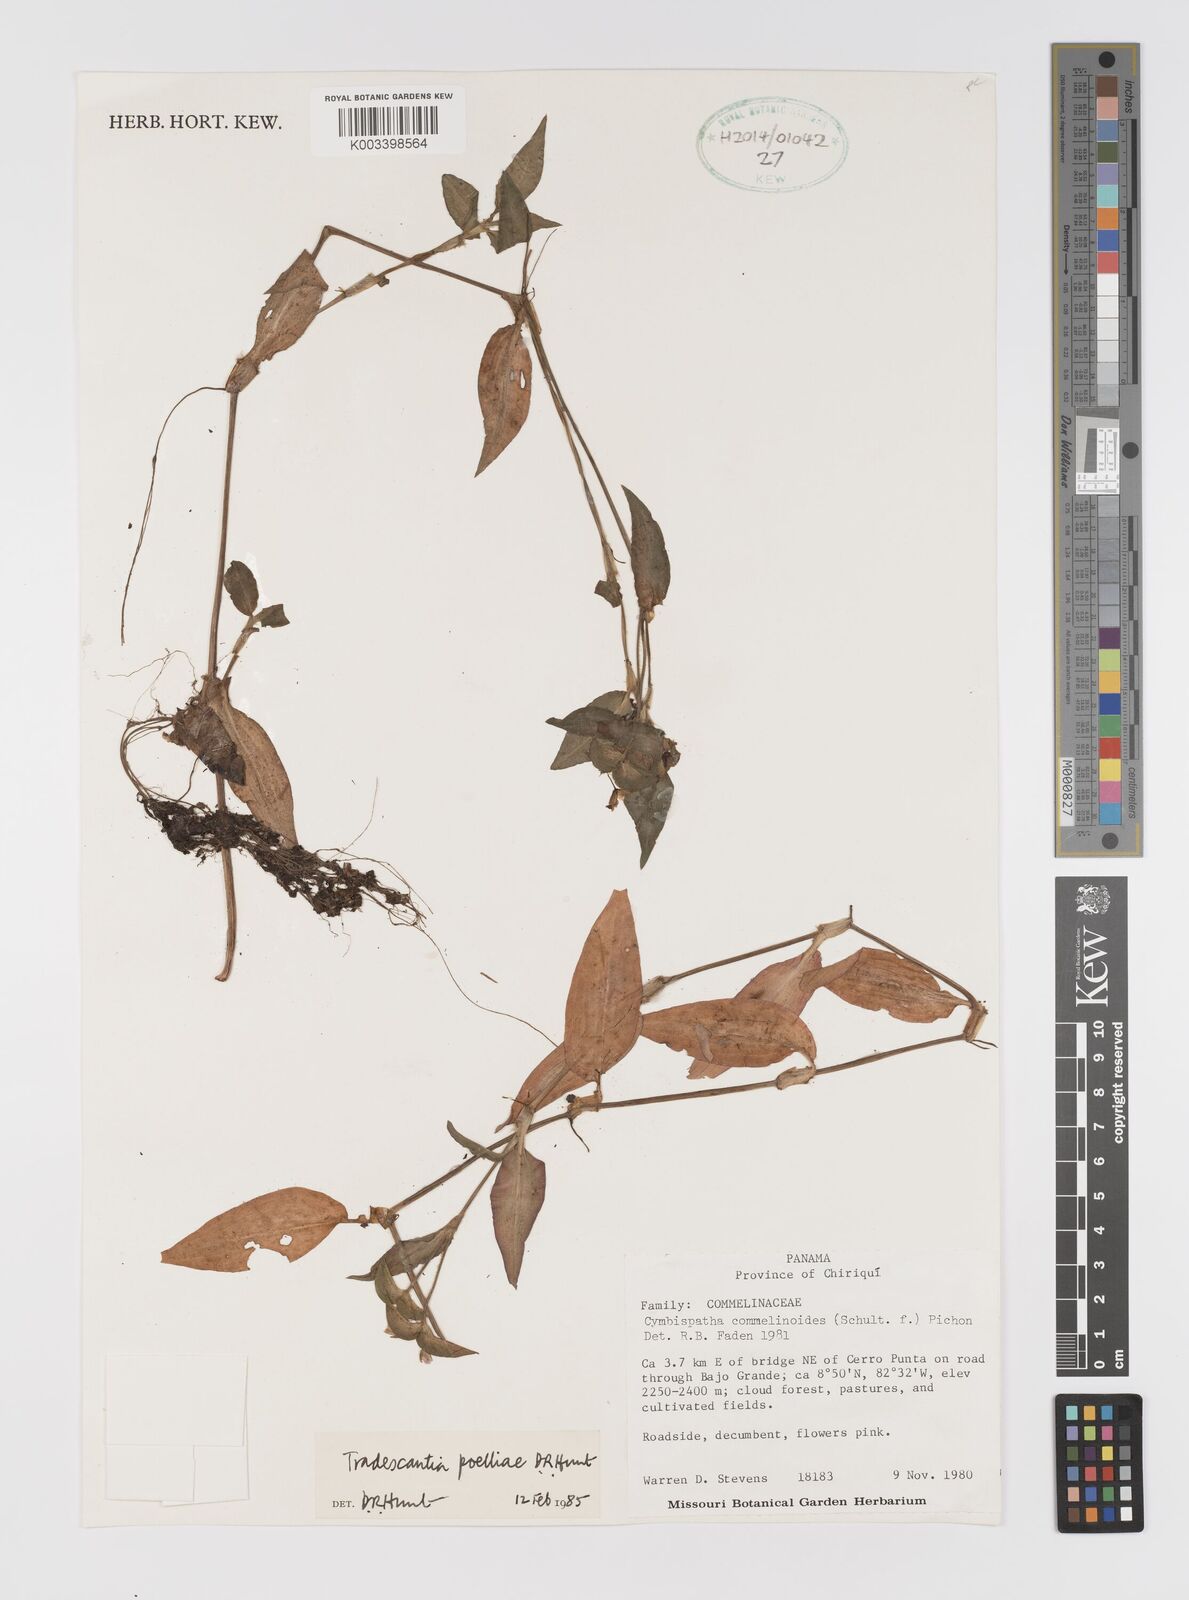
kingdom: Plantae
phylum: Tracheophyta
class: Liliopsida
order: Commelinales
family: Commelinaceae
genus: Tradescantia
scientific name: Tradescantia poelliae
